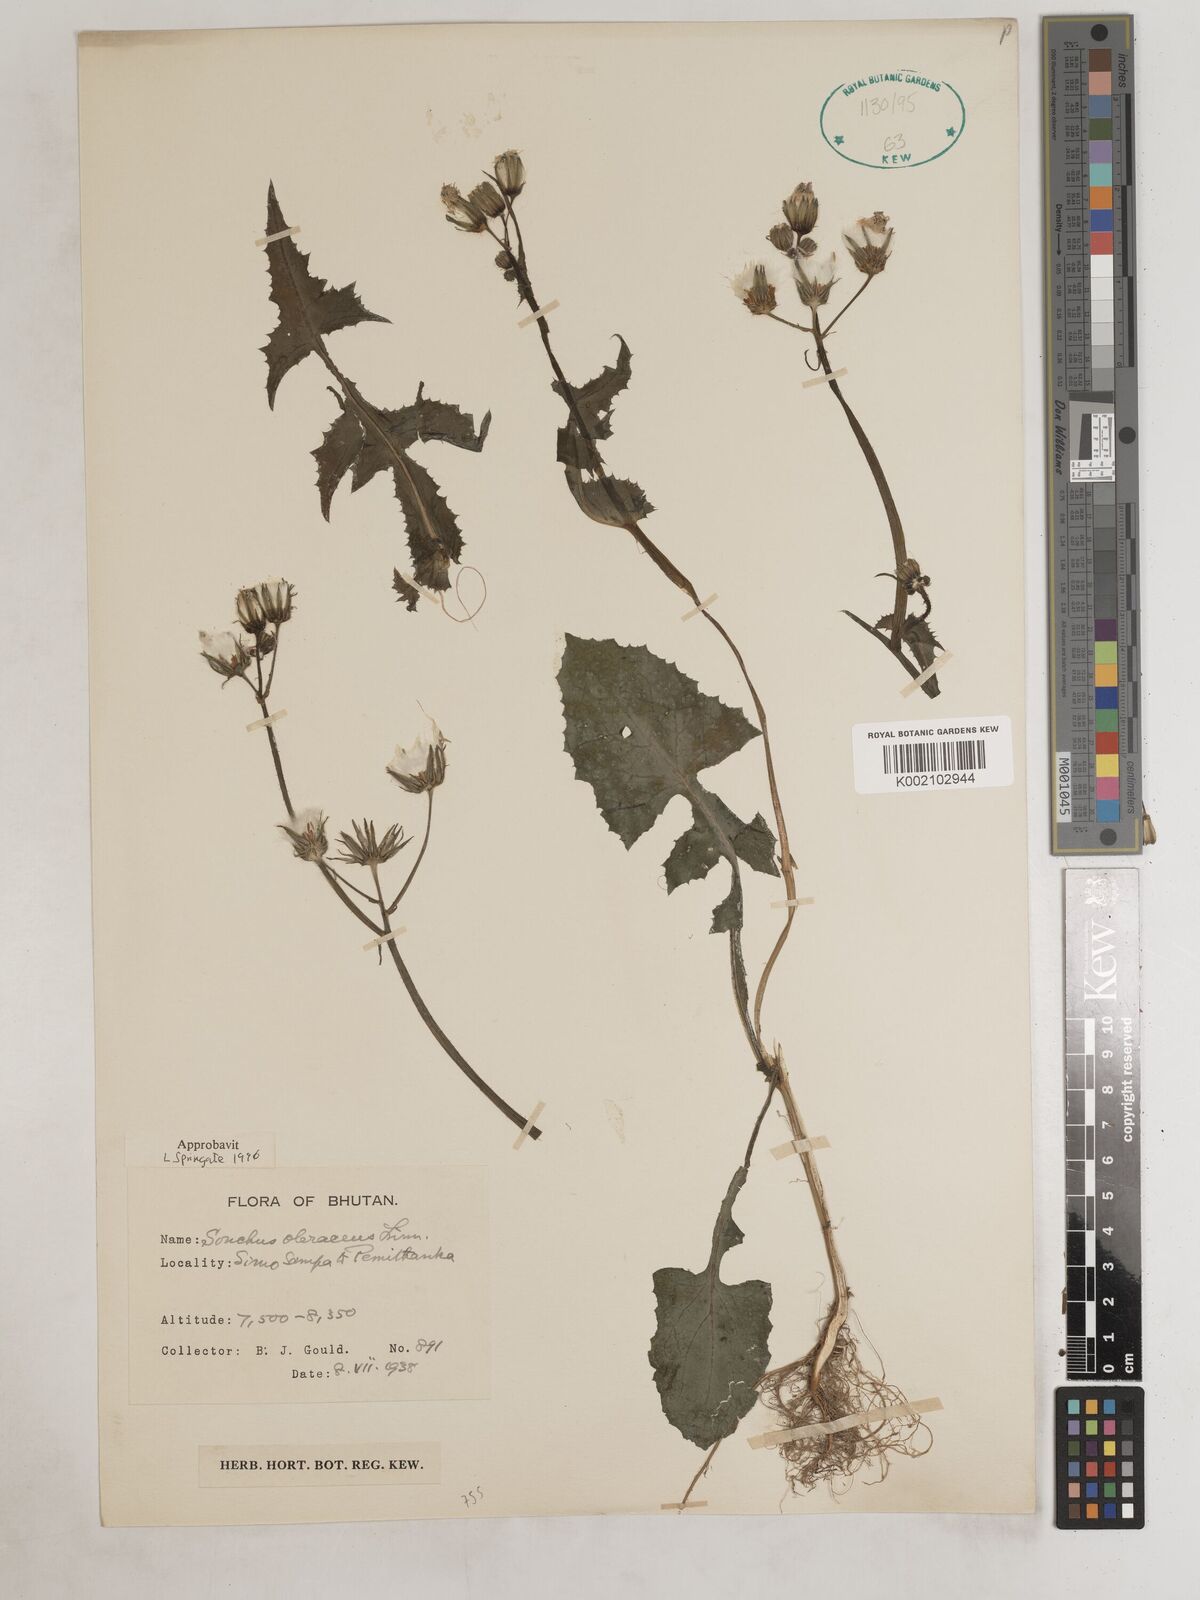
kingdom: Plantae
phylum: Tracheophyta
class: Magnoliopsida
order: Asterales
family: Asteraceae
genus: Sonchus
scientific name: Sonchus arvensis
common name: Perennial sow-thistle
